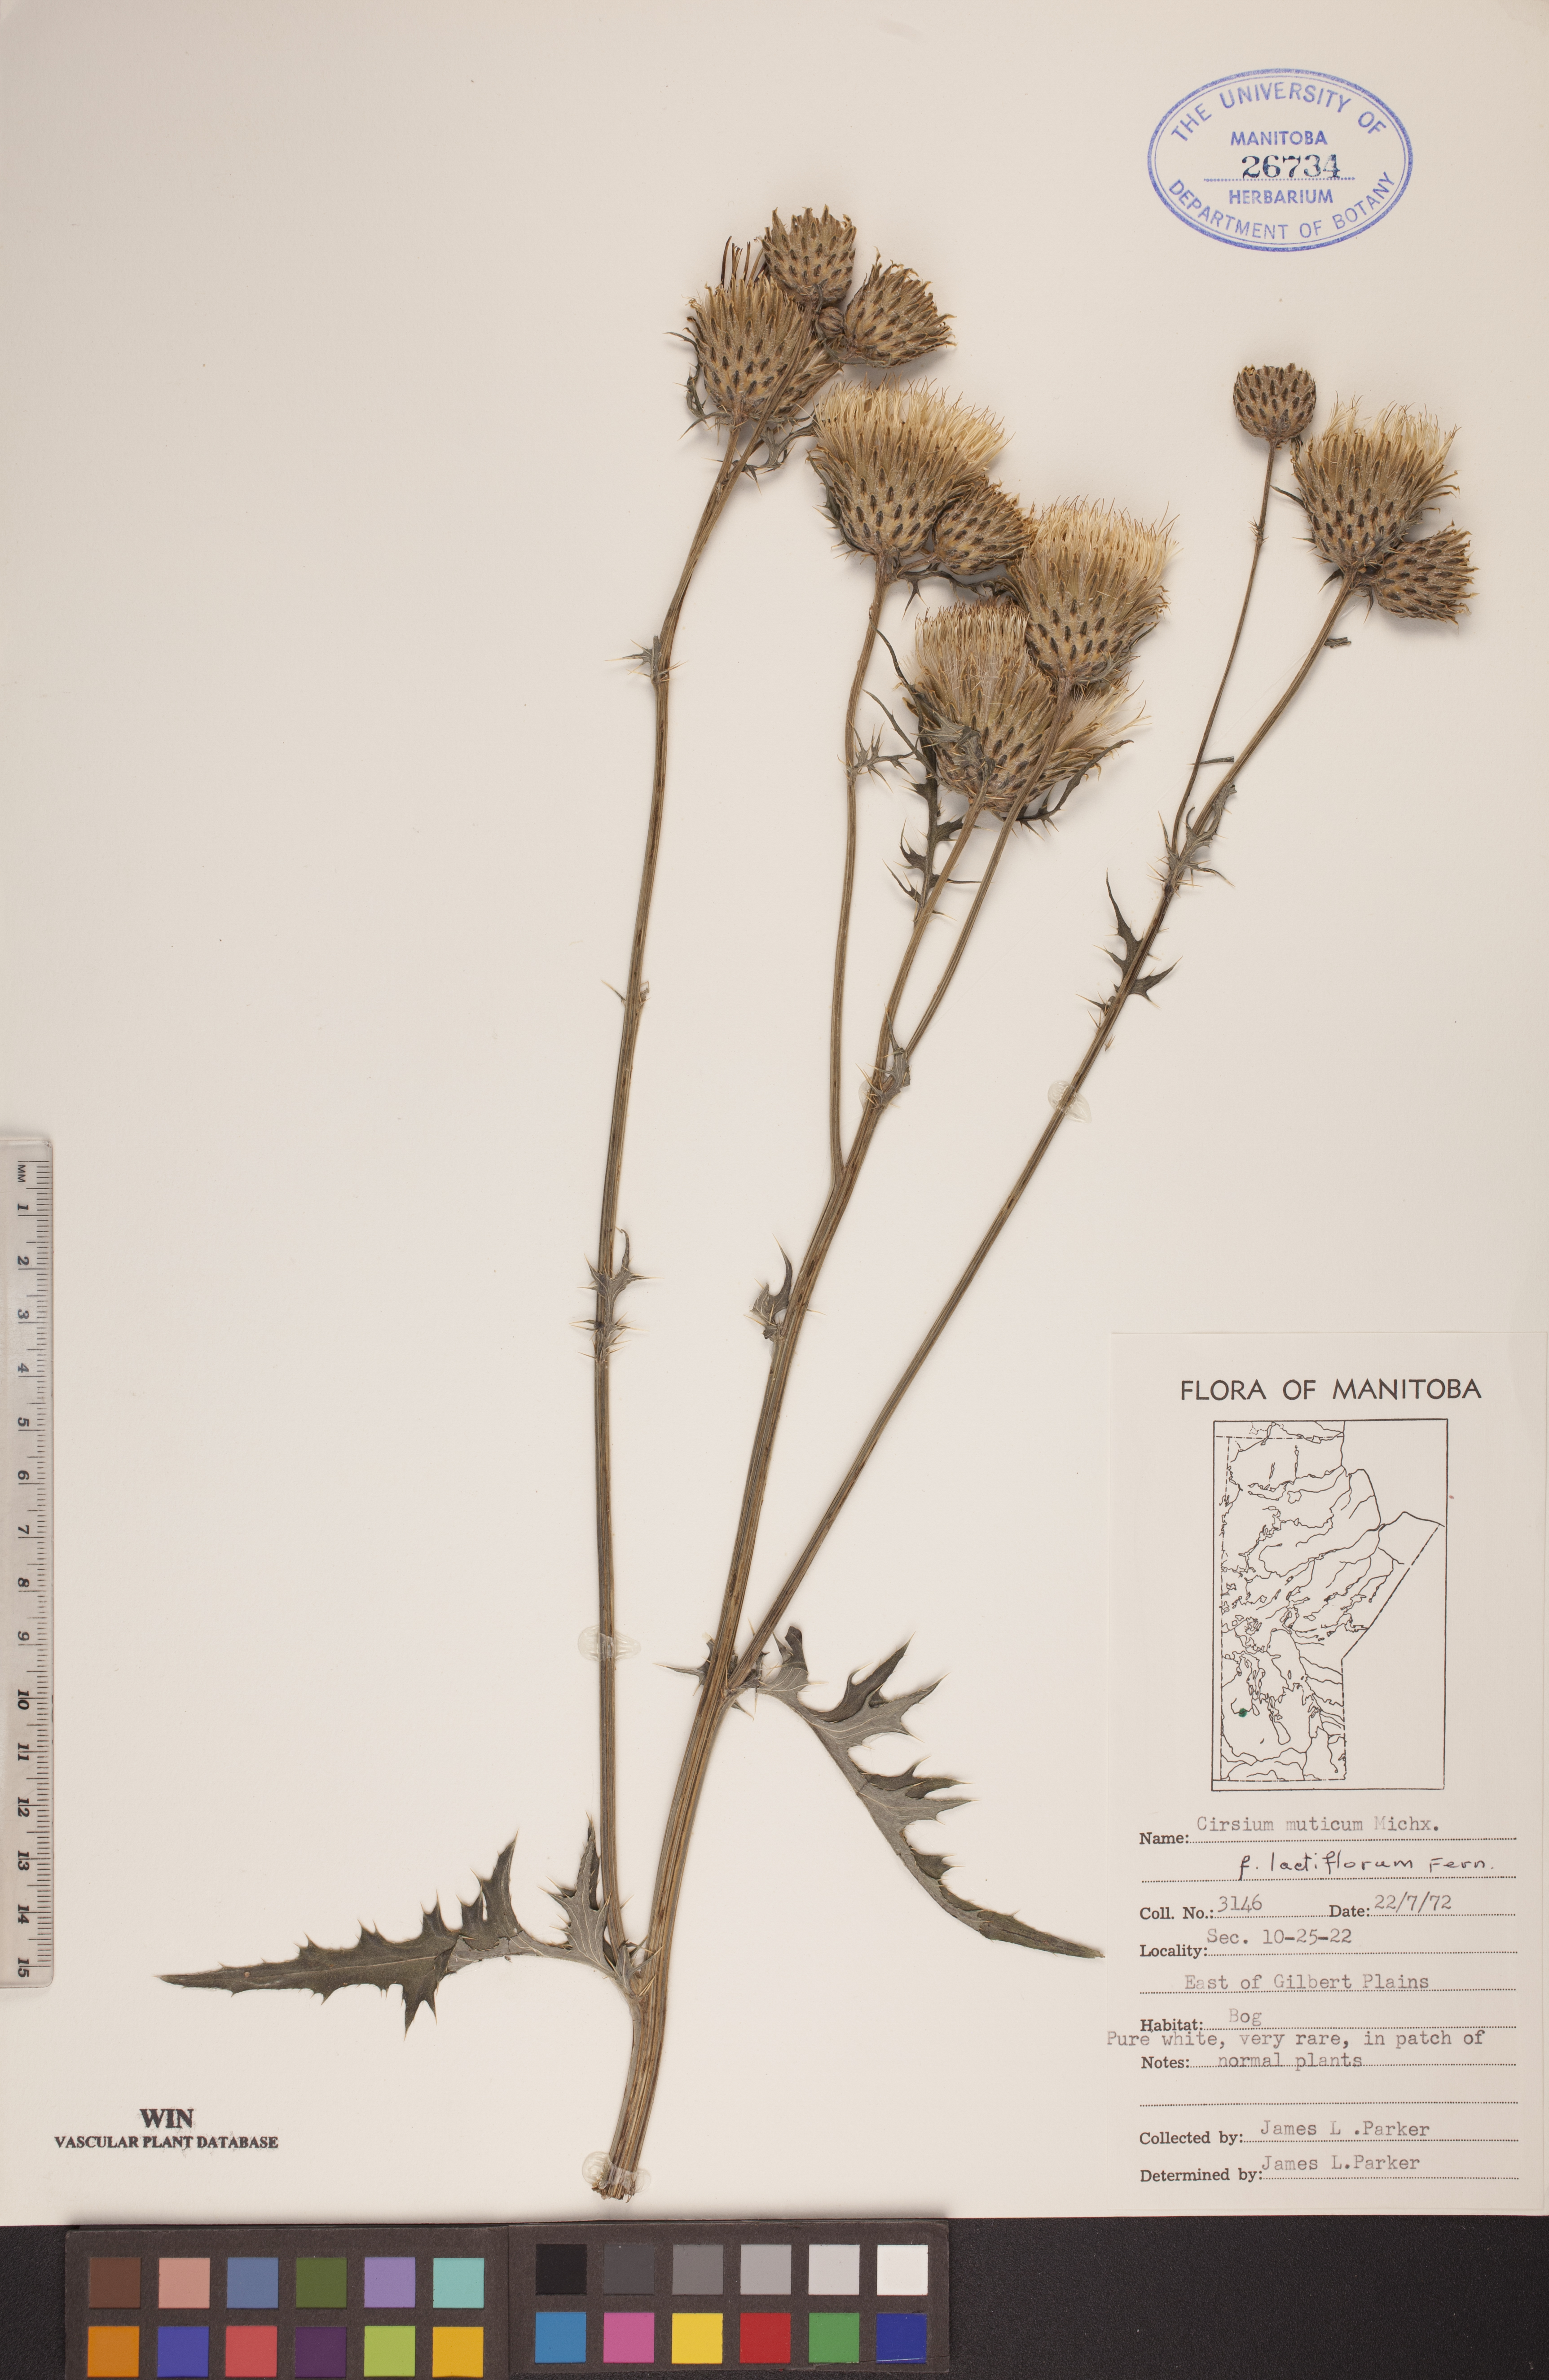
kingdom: Plantae
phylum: Tracheophyta
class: Magnoliopsida
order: Asterales
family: Asteraceae
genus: Cirsium
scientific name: Cirsium muticum
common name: Dunce-nettle
